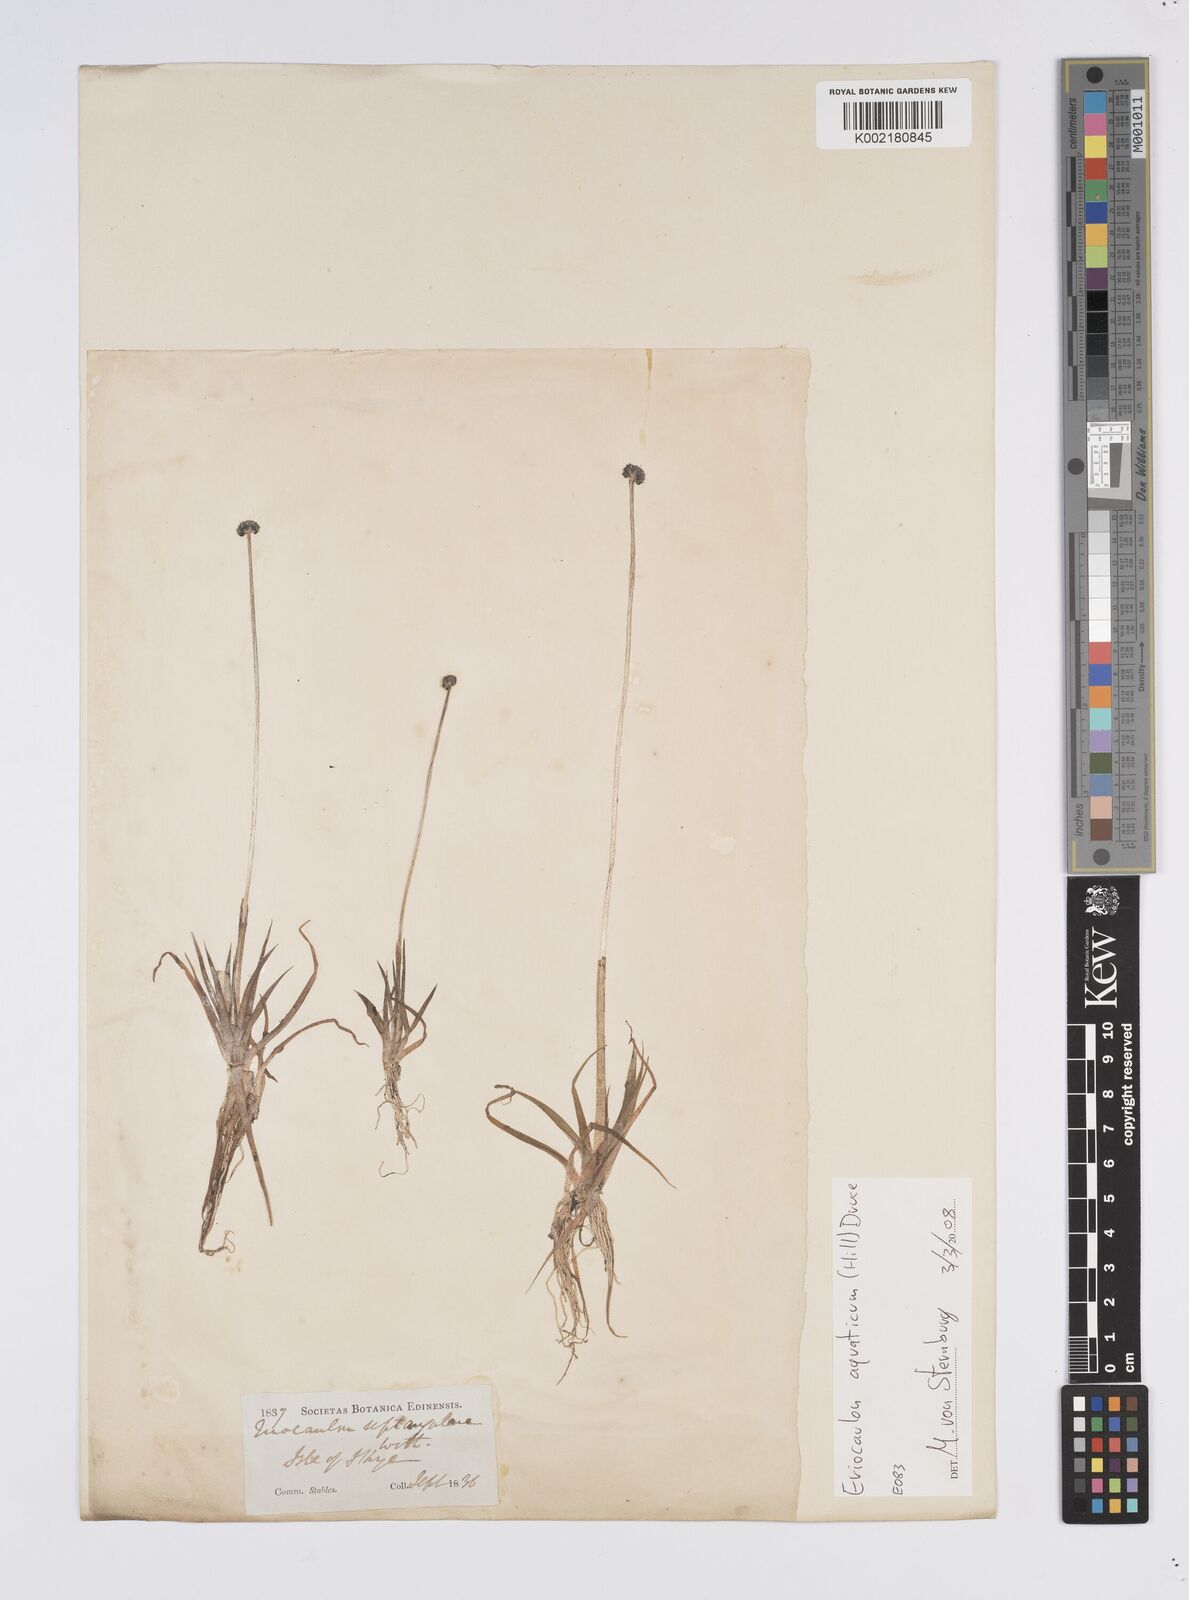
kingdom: Plantae
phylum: Tracheophyta
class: Liliopsida
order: Poales
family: Eriocaulaceae
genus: Eriocaulon
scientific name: Eriocaulon aquaticum
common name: Pipewort
